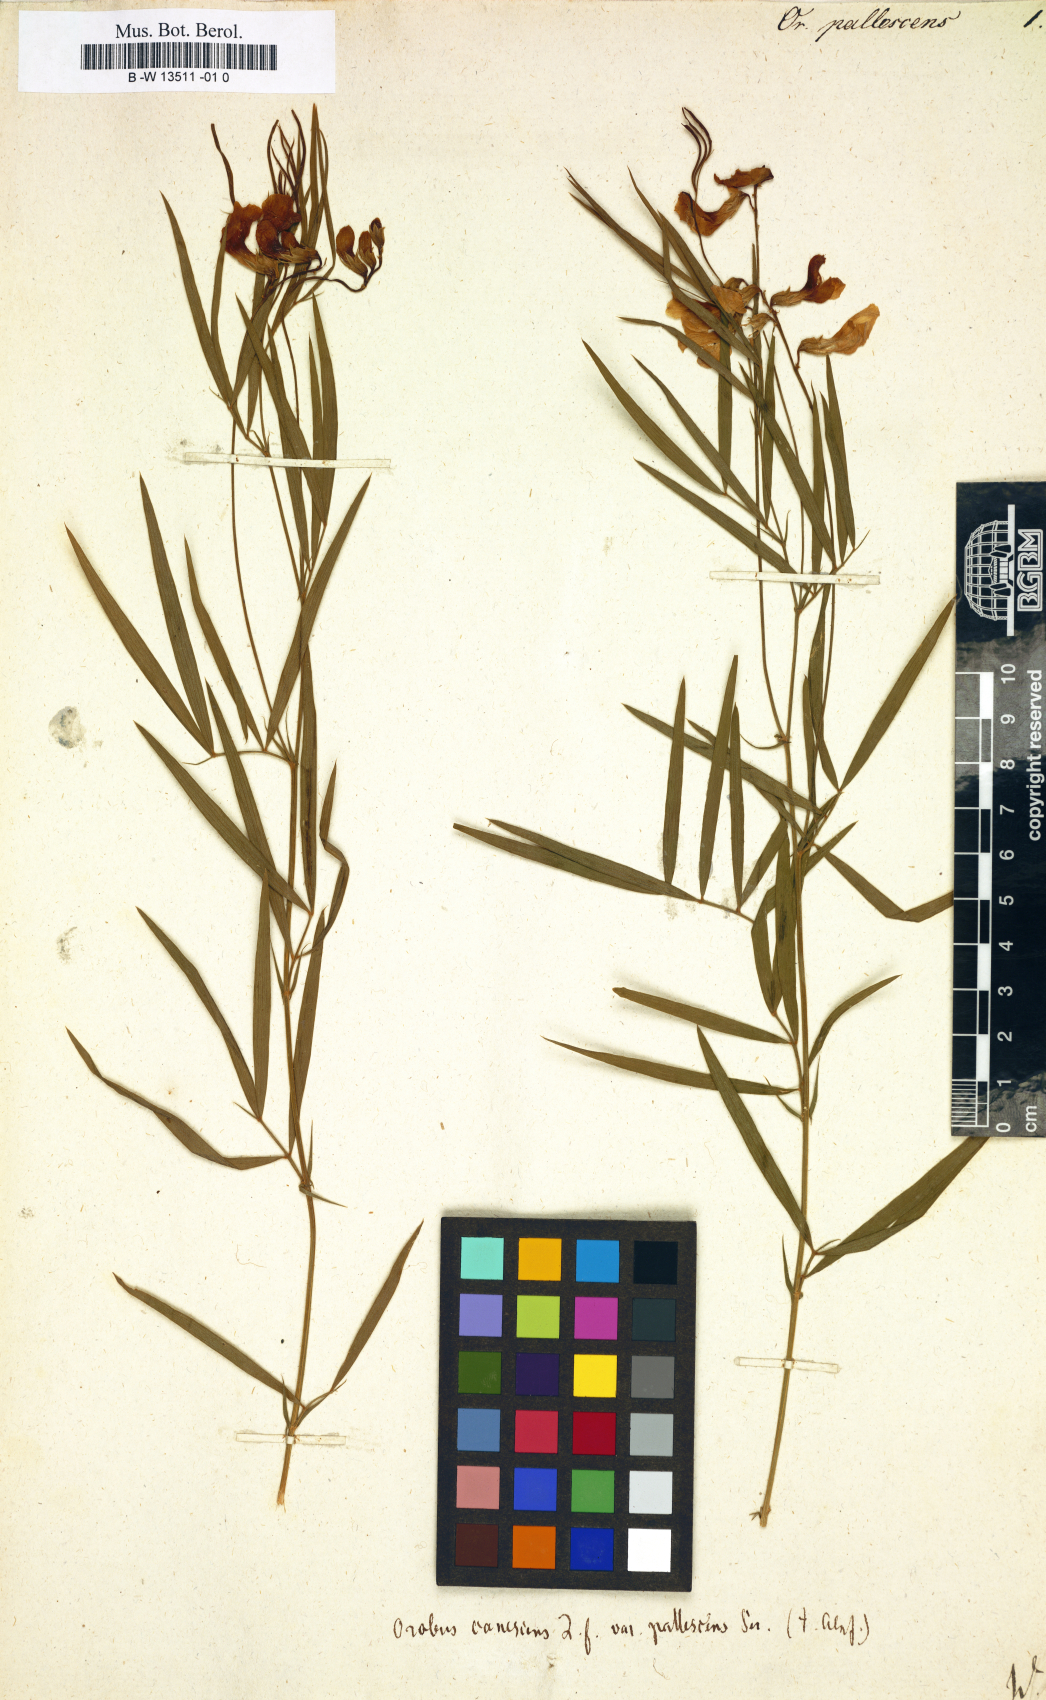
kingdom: Plantae
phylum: Tracheophyta
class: Magnoliopsida
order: Fabales
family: Fabaceae
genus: Lathyrus
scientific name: Lathyrus pallescens
